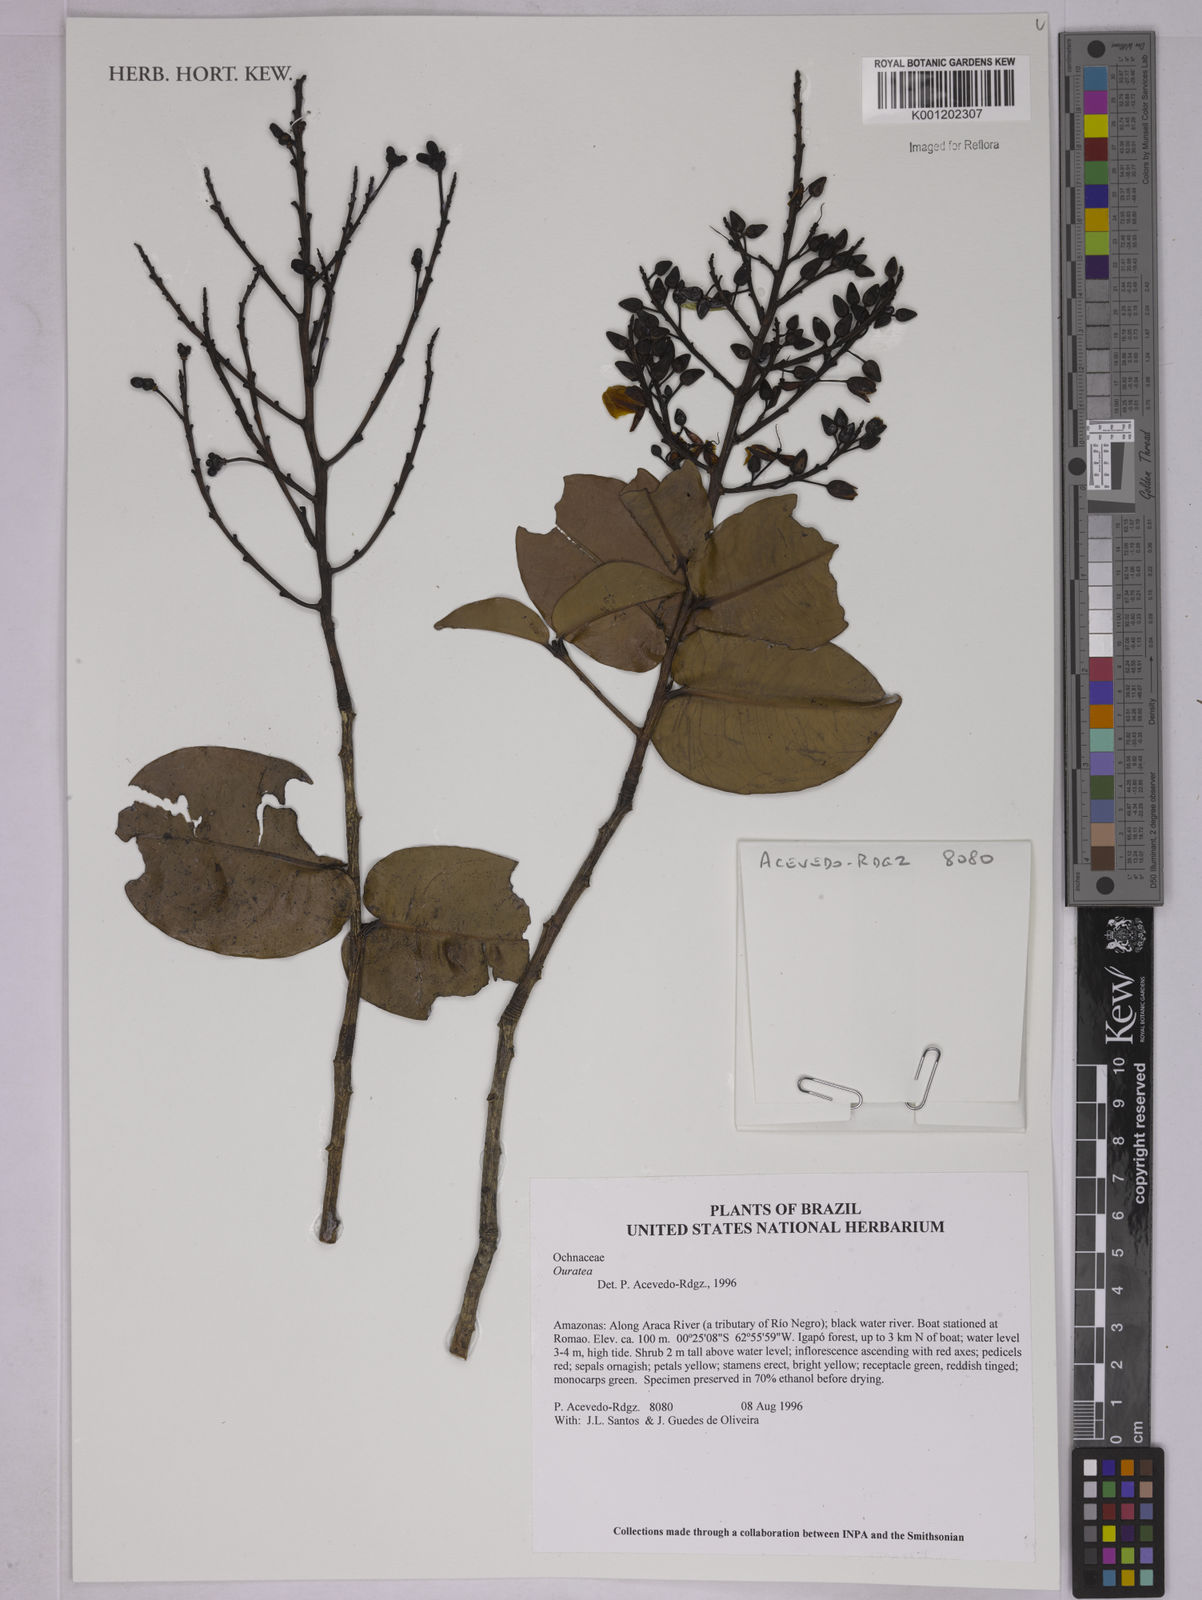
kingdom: Plantae
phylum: Tracheophyta
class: Magnoliopsida
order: Malpighiales
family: Ochnaceae
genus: Ouratea
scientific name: Ouratea
